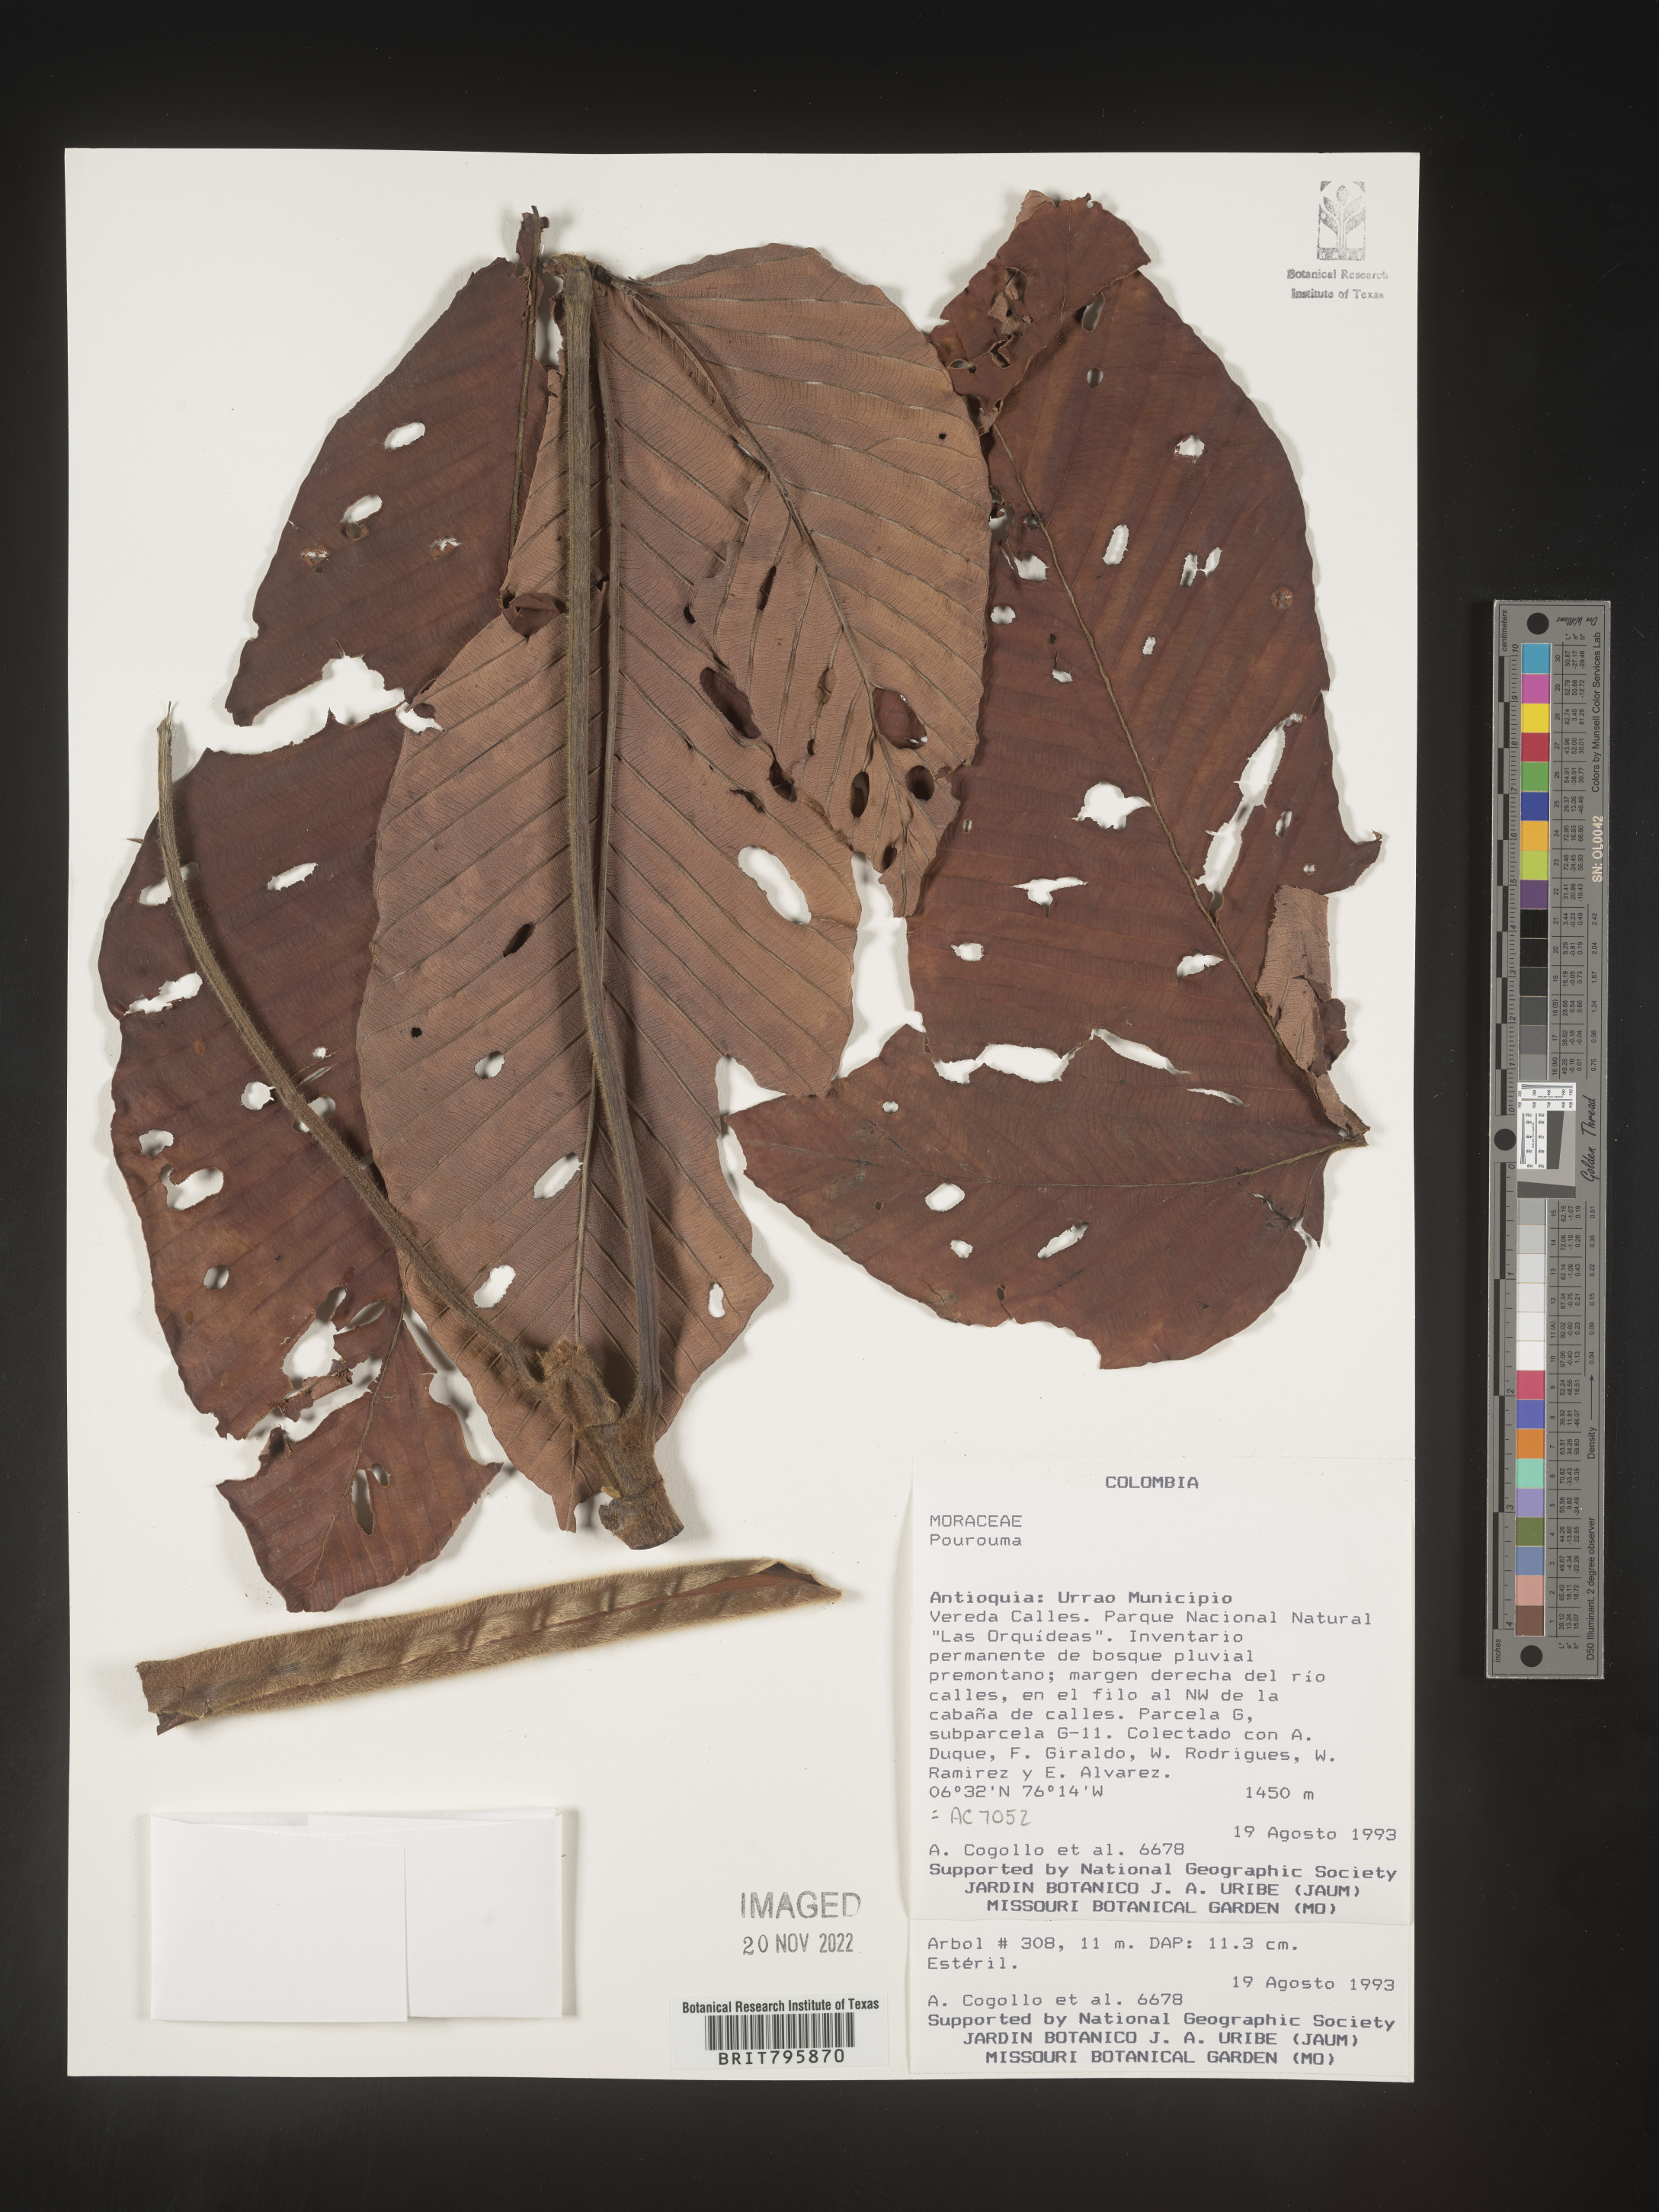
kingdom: Plantae
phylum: Tracheophyta
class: Magnoliopsida
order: Rosales
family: Urticaceae
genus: Pourouma
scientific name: Pourouma
